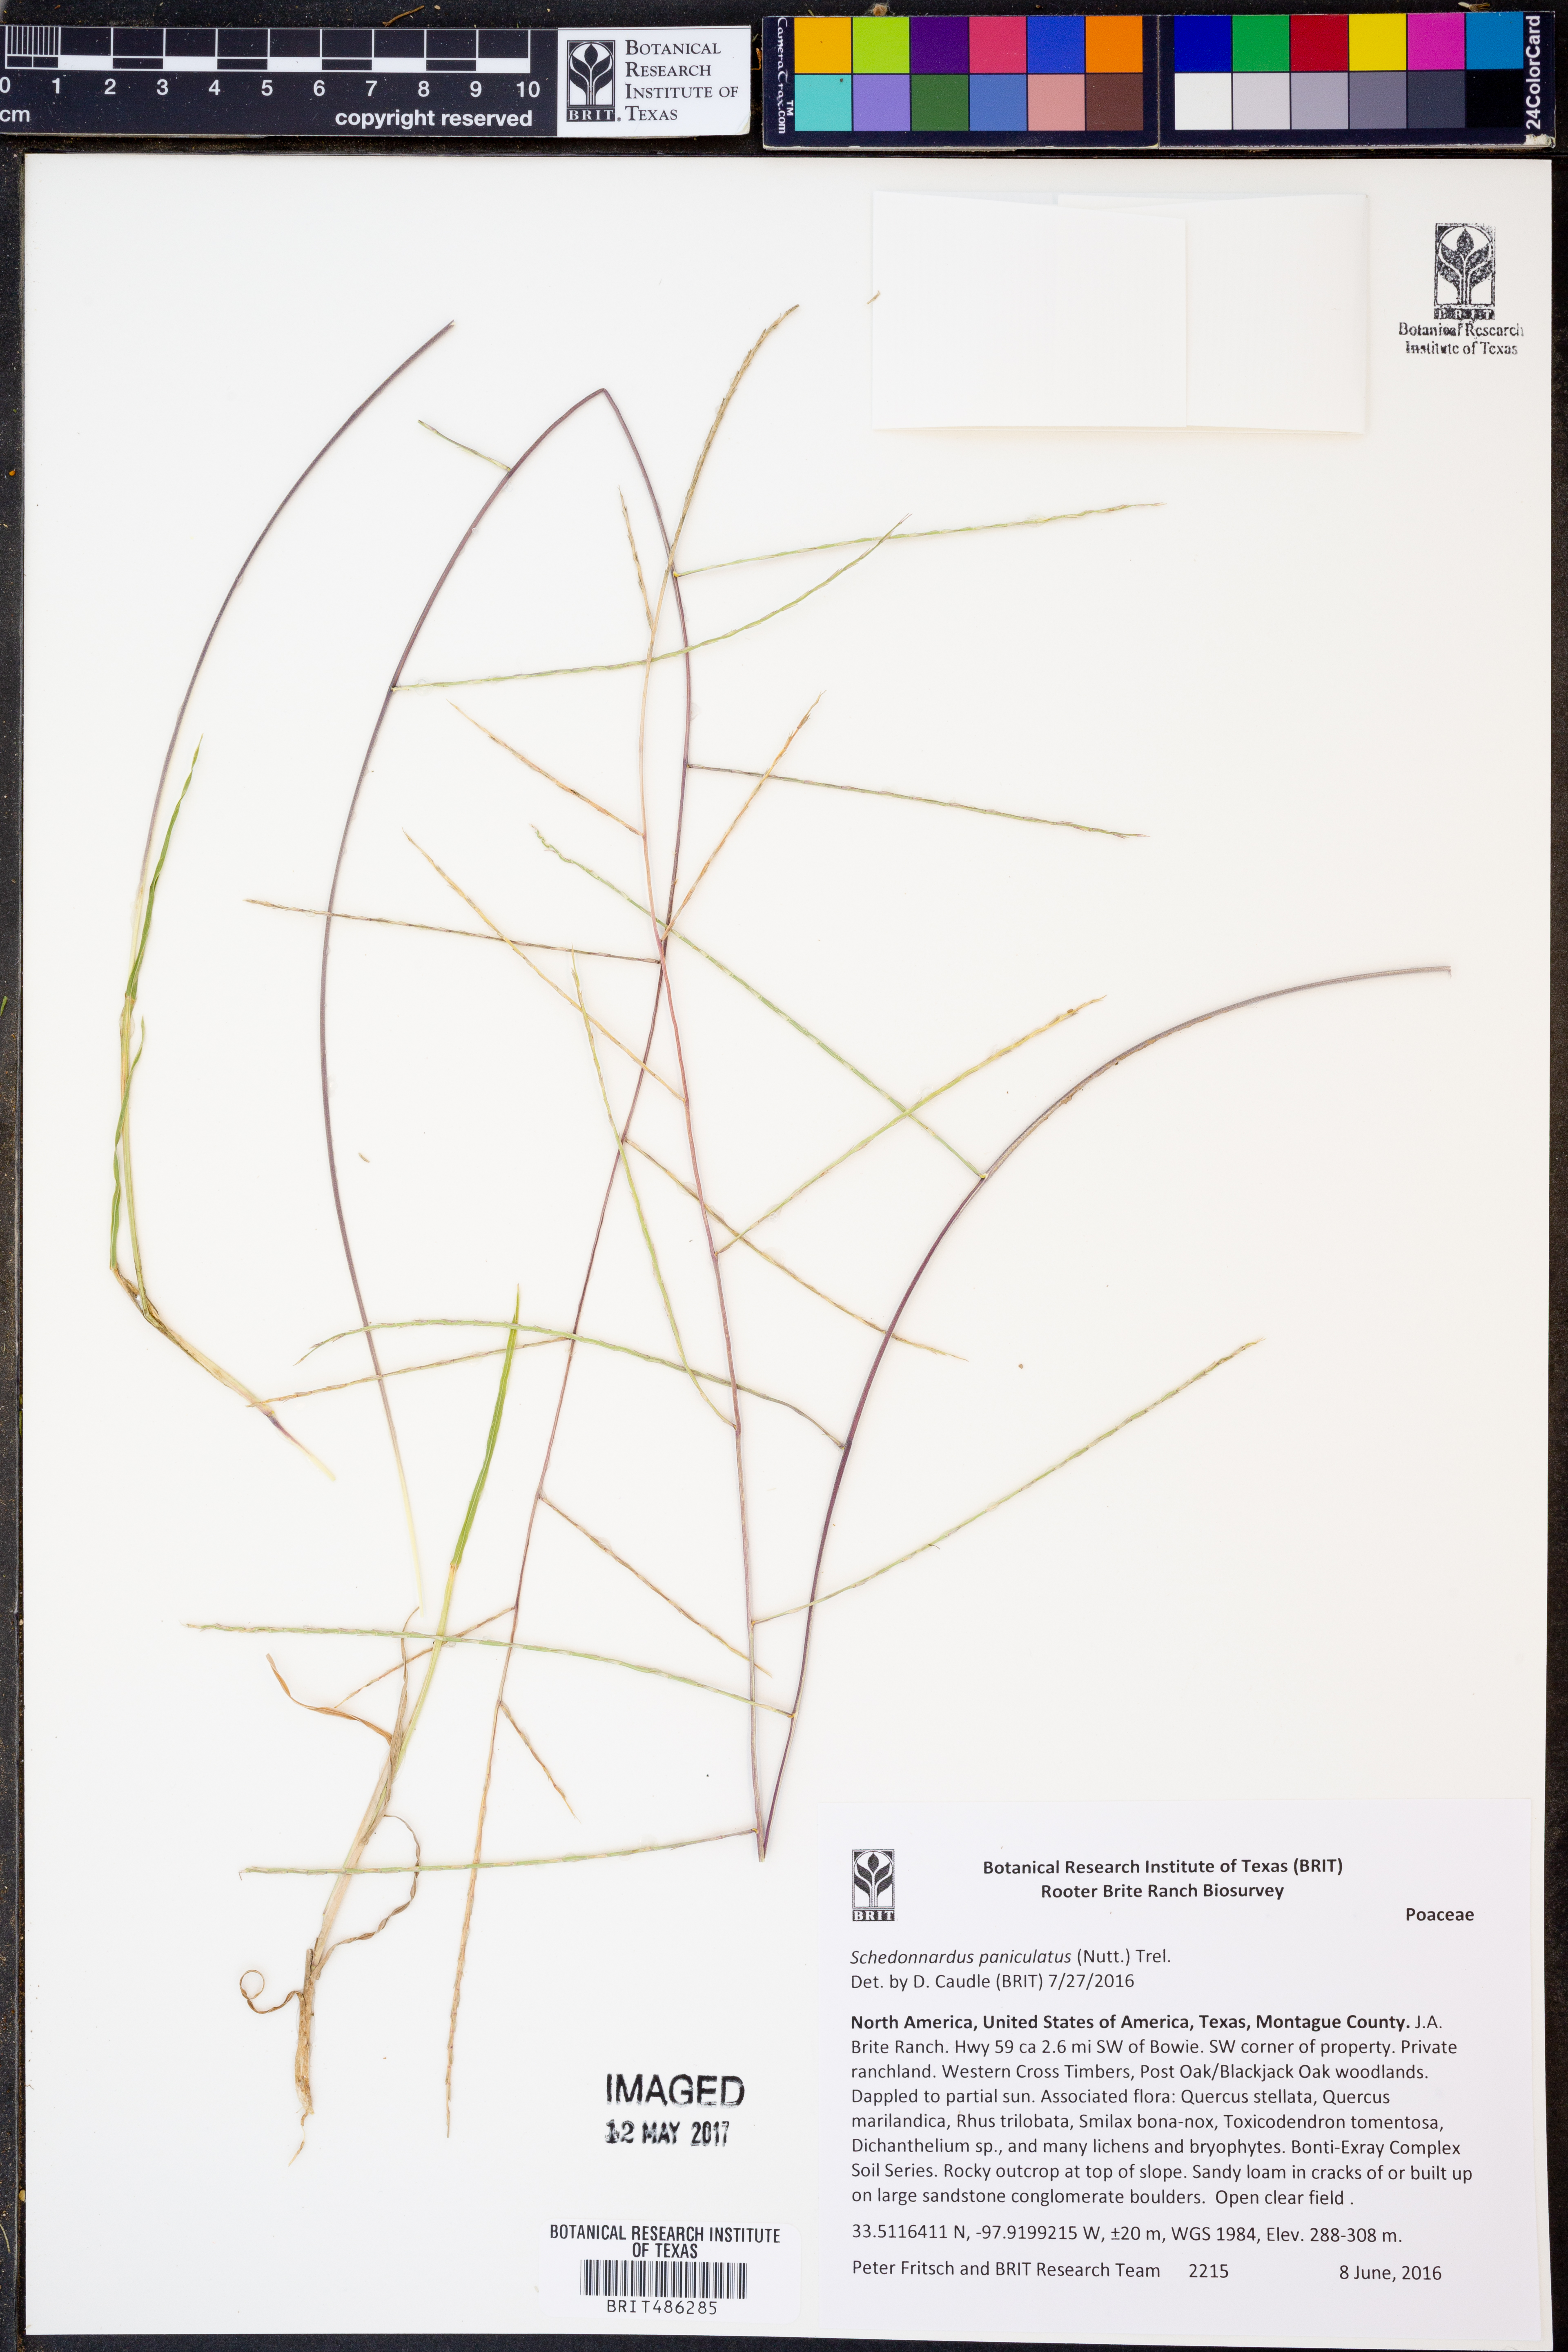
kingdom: Plantae
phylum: Tracheophyta
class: Liliopsida
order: Poales
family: Poaceae
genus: Muhlenbergia
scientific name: Muhlenbergia paniculata
